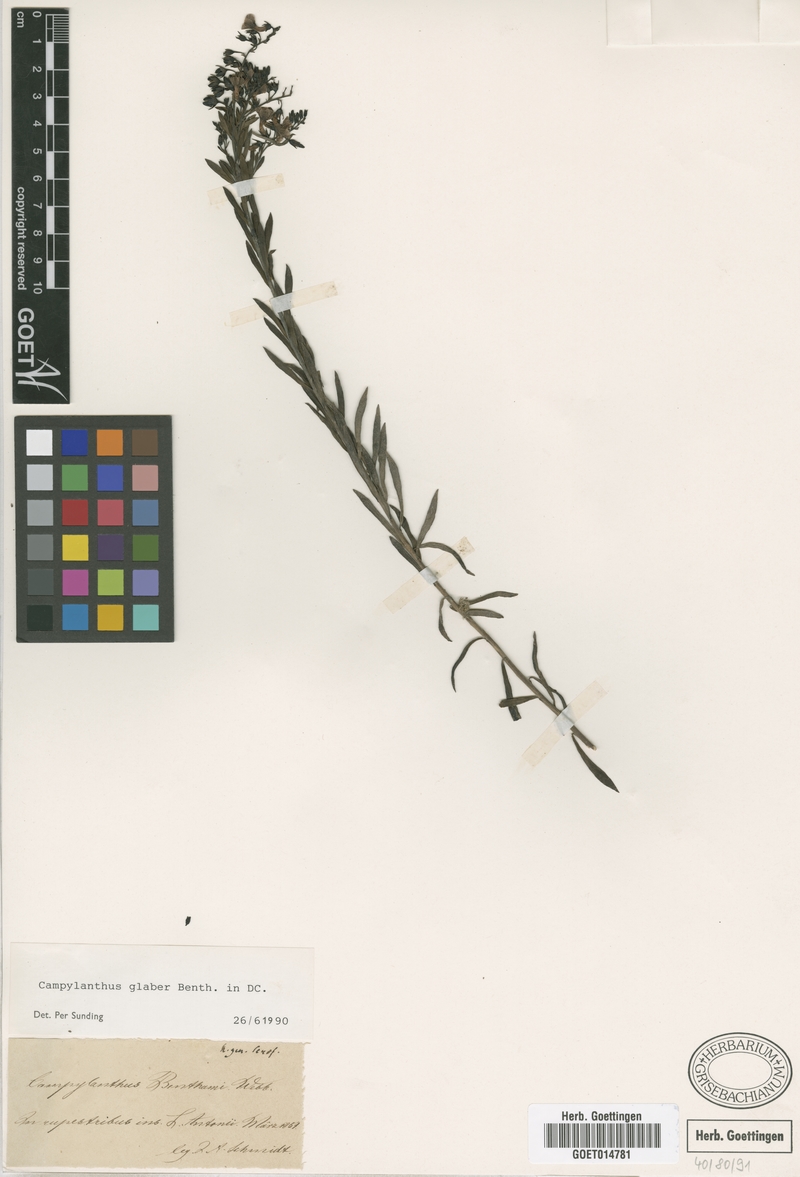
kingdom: Plantae
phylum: Tracheophyta
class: Magnoliopsida
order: Lamiales
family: Plantaginaceae
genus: Campylanthus
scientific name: Campylanthus glaber
